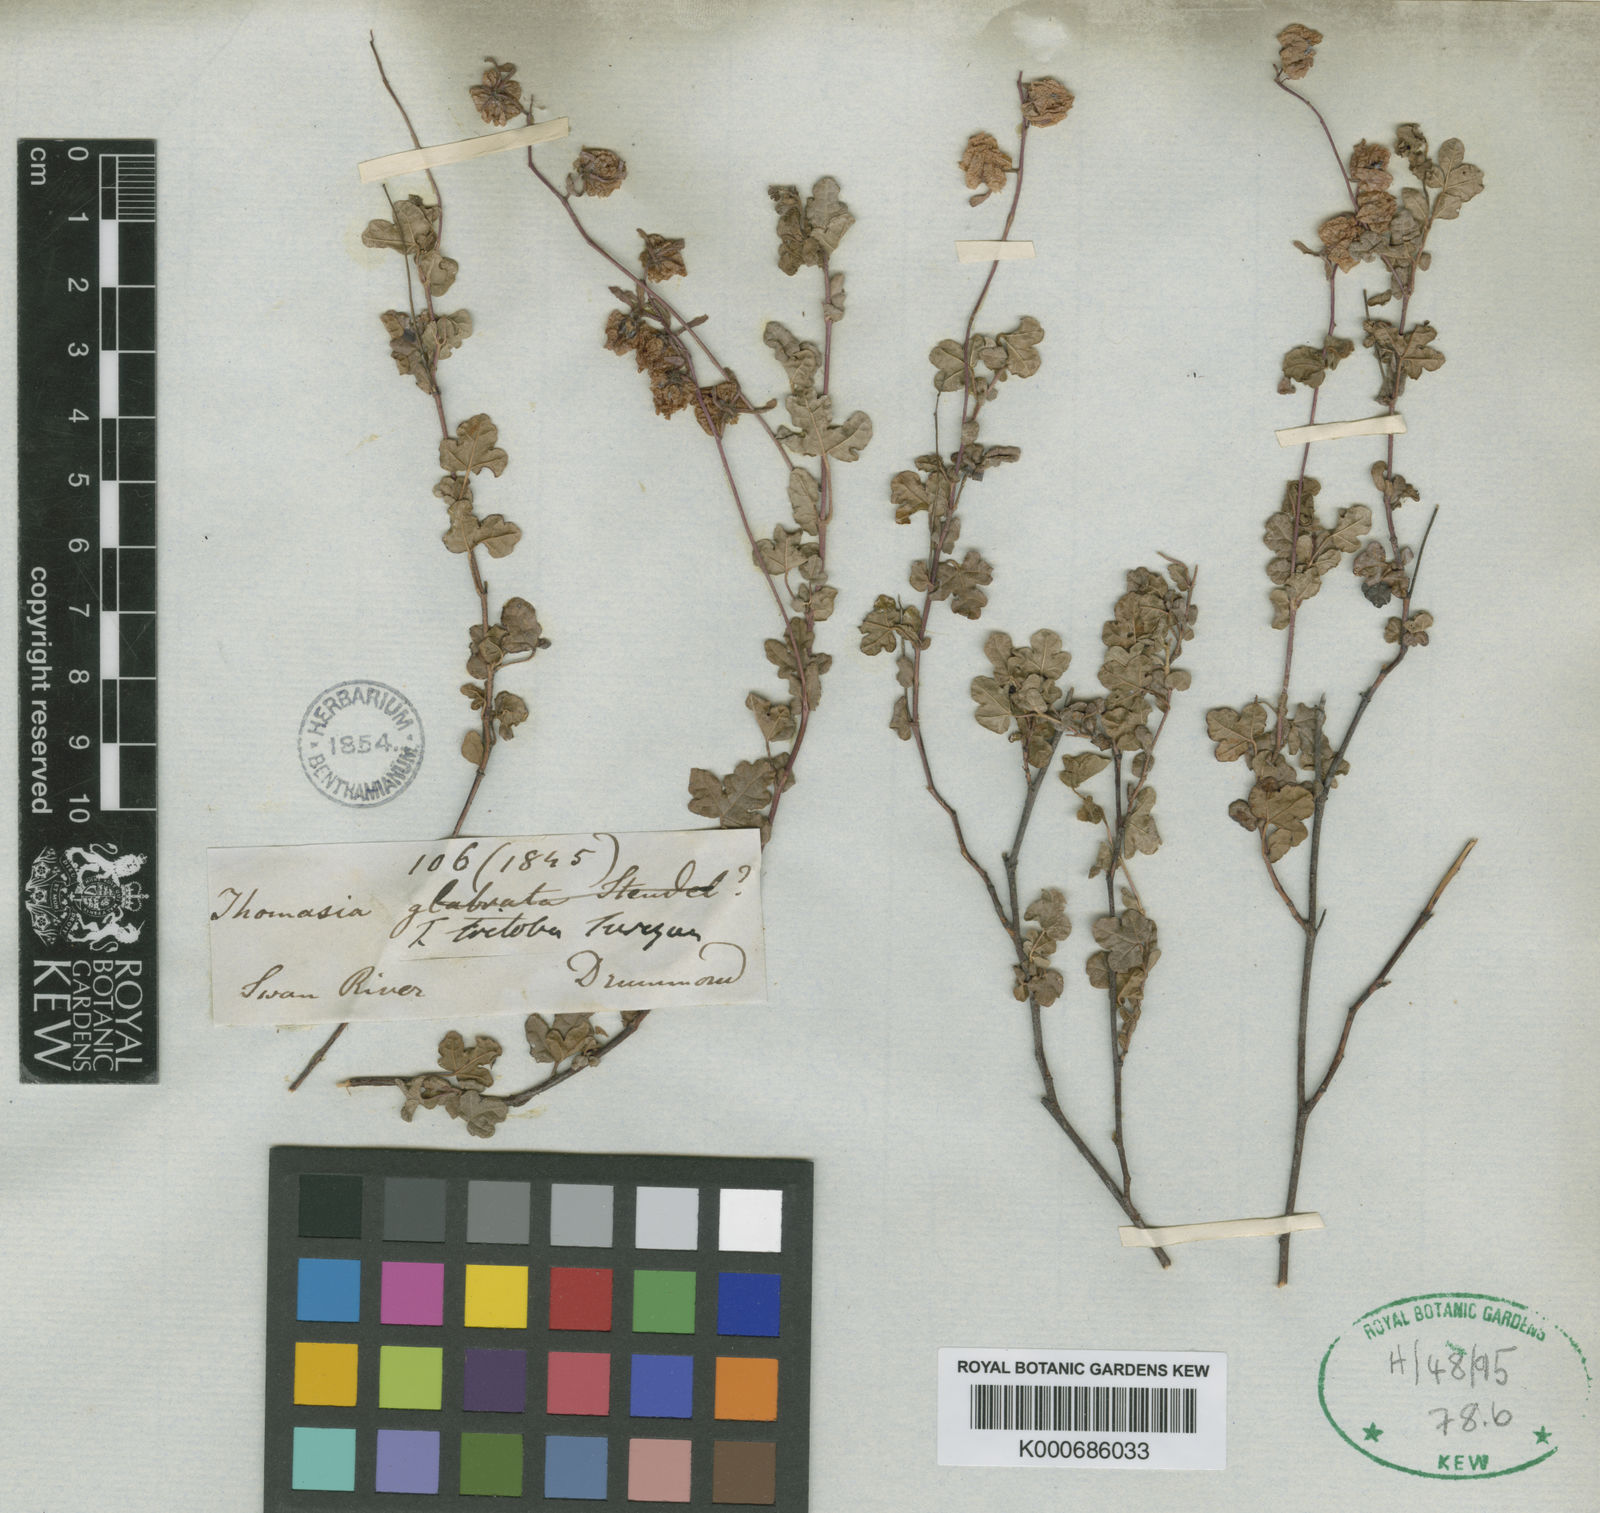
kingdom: Plantae
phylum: Tracheophyta
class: Magnoliopsida
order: Malvales
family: Malvaceae
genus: Thomasia
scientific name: Thomasia triloba
